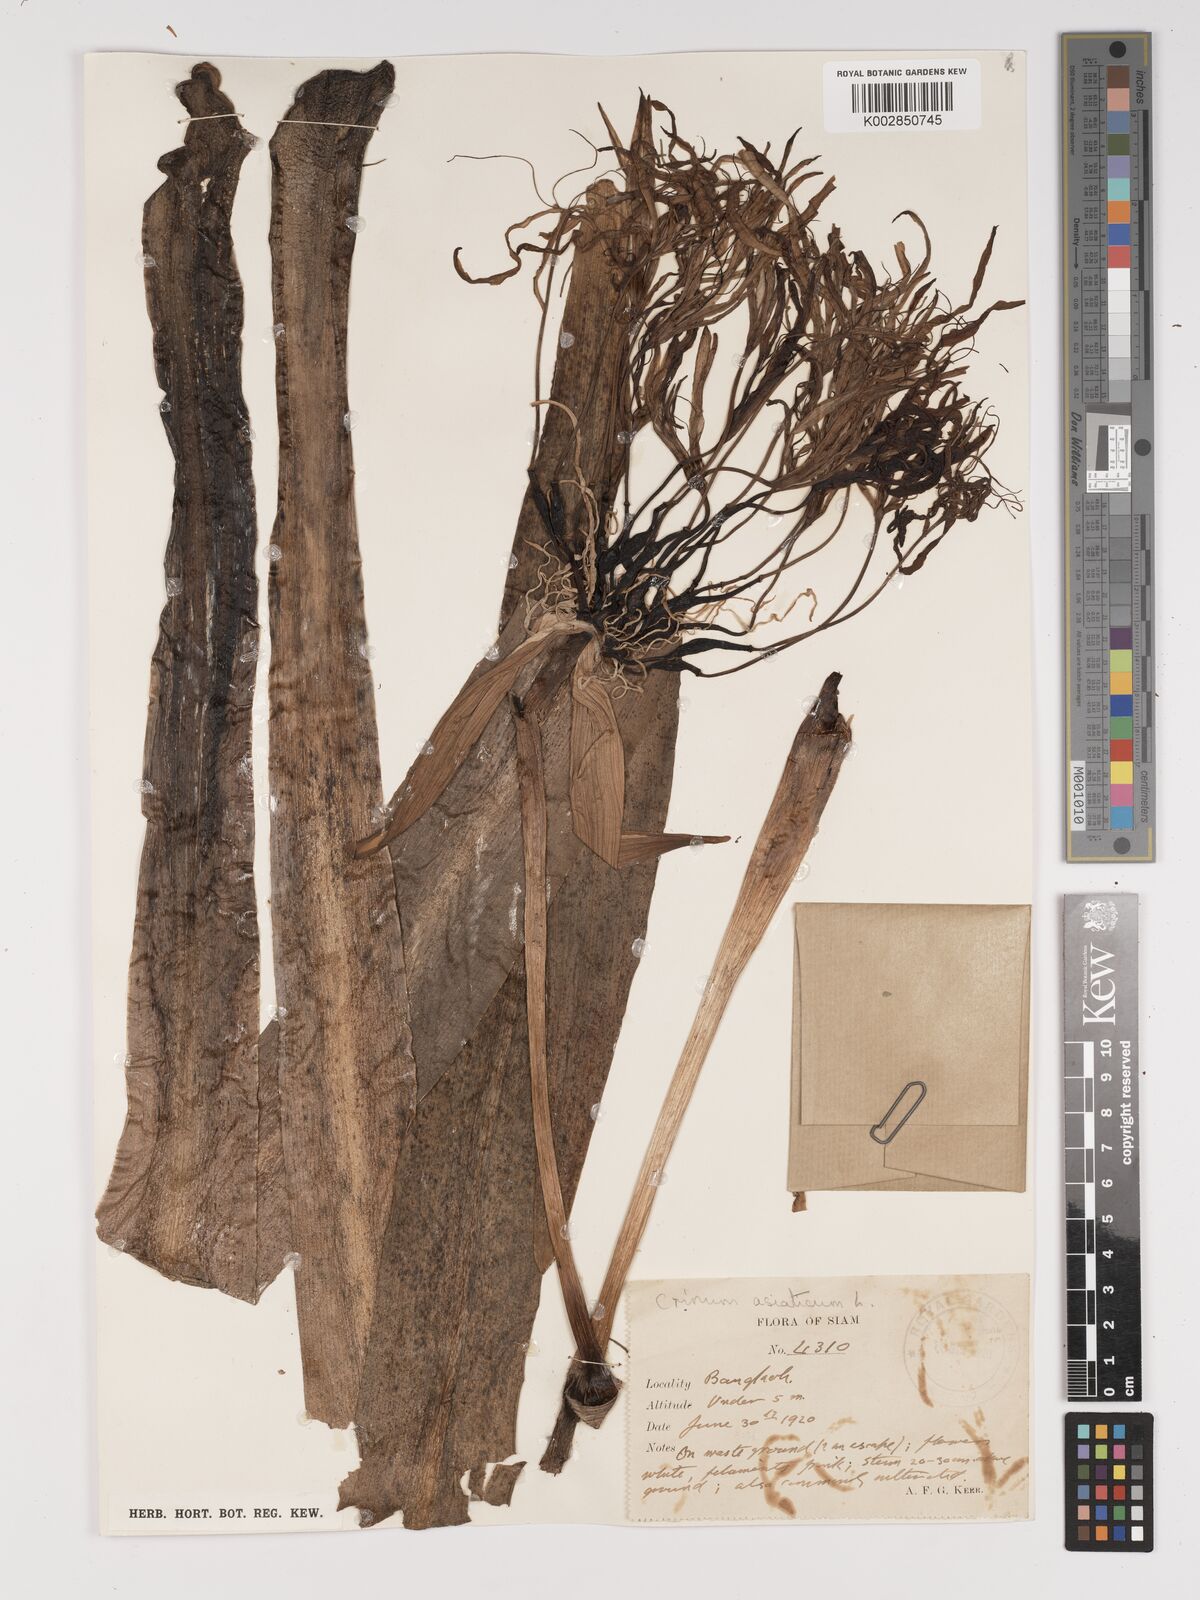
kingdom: Plantae
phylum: Tracheophyta
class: Liliopsida
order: Asparagales
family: Amaryllidaceae
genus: Crinum
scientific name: Crinum asiaticum
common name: Poisonbulb
